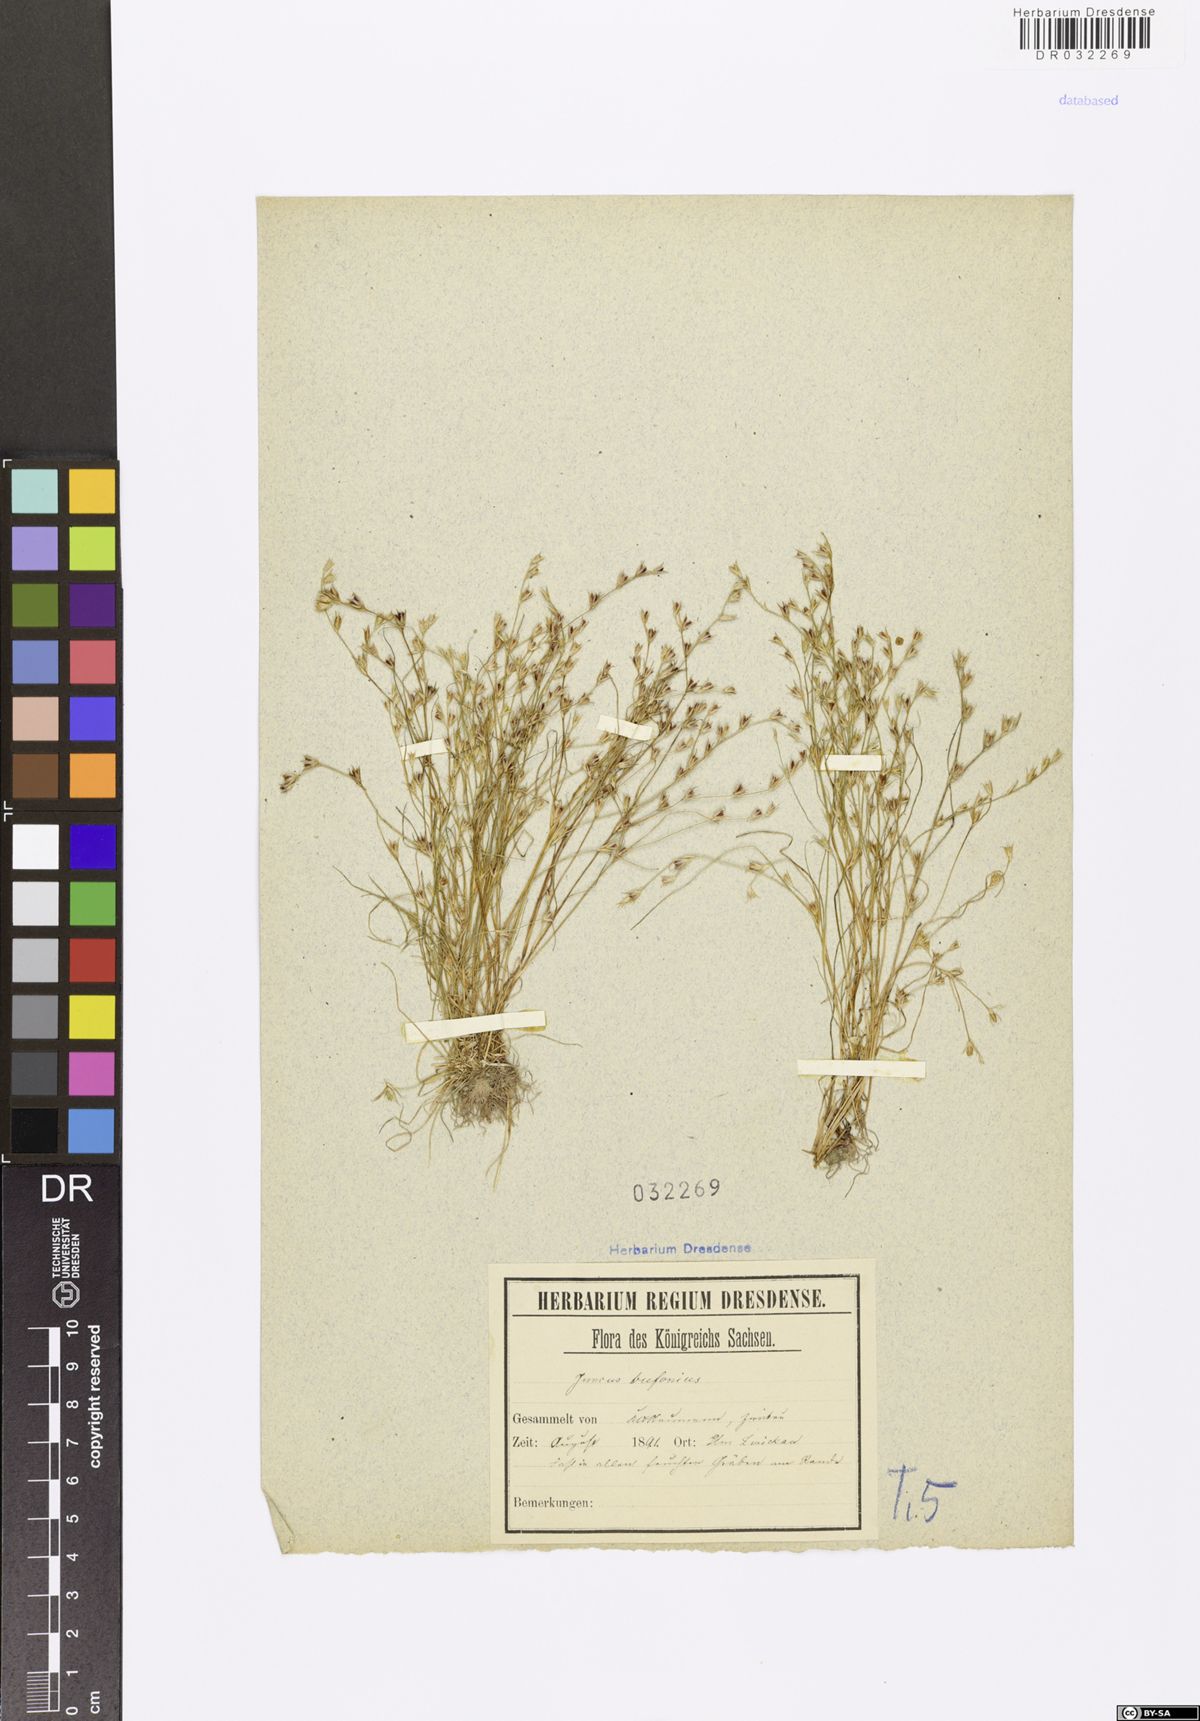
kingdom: Plantae
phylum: Tracheophyta
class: Liliopsida
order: Poales
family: Juncaceae
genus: Juncus
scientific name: Juncus bufonius
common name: Toad rush
